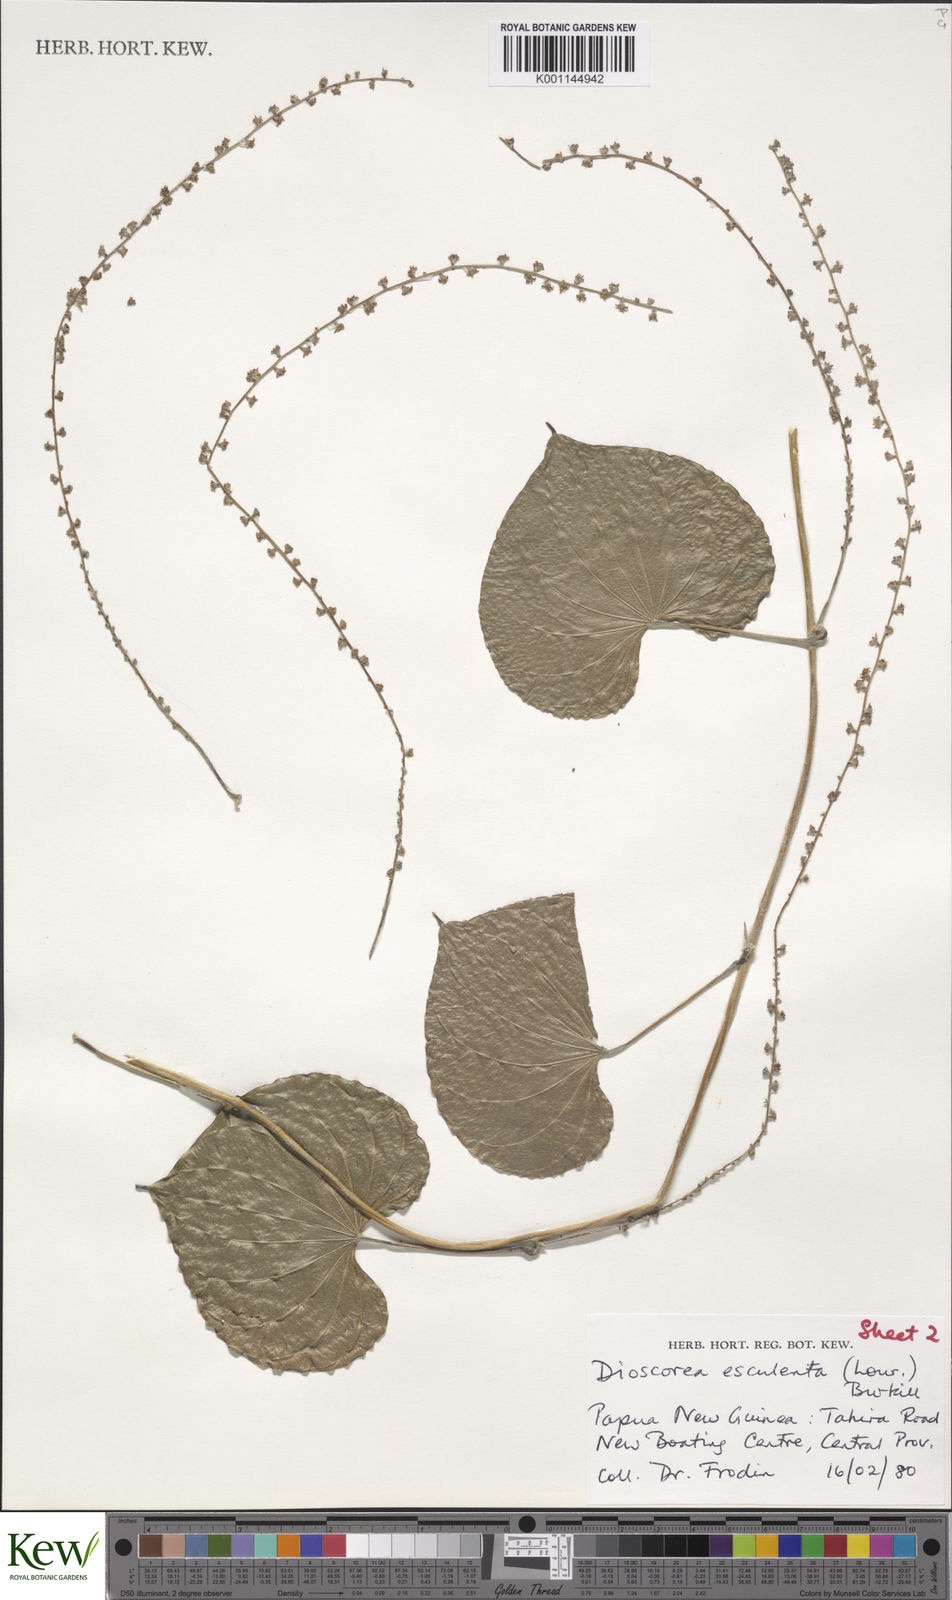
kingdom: Plantae
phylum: Tracheophyta
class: Liliopsida
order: Dioscoreales
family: Dioscoreaceae
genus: Dioscorea
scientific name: Dioscorea esculenta
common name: Chinese yam
